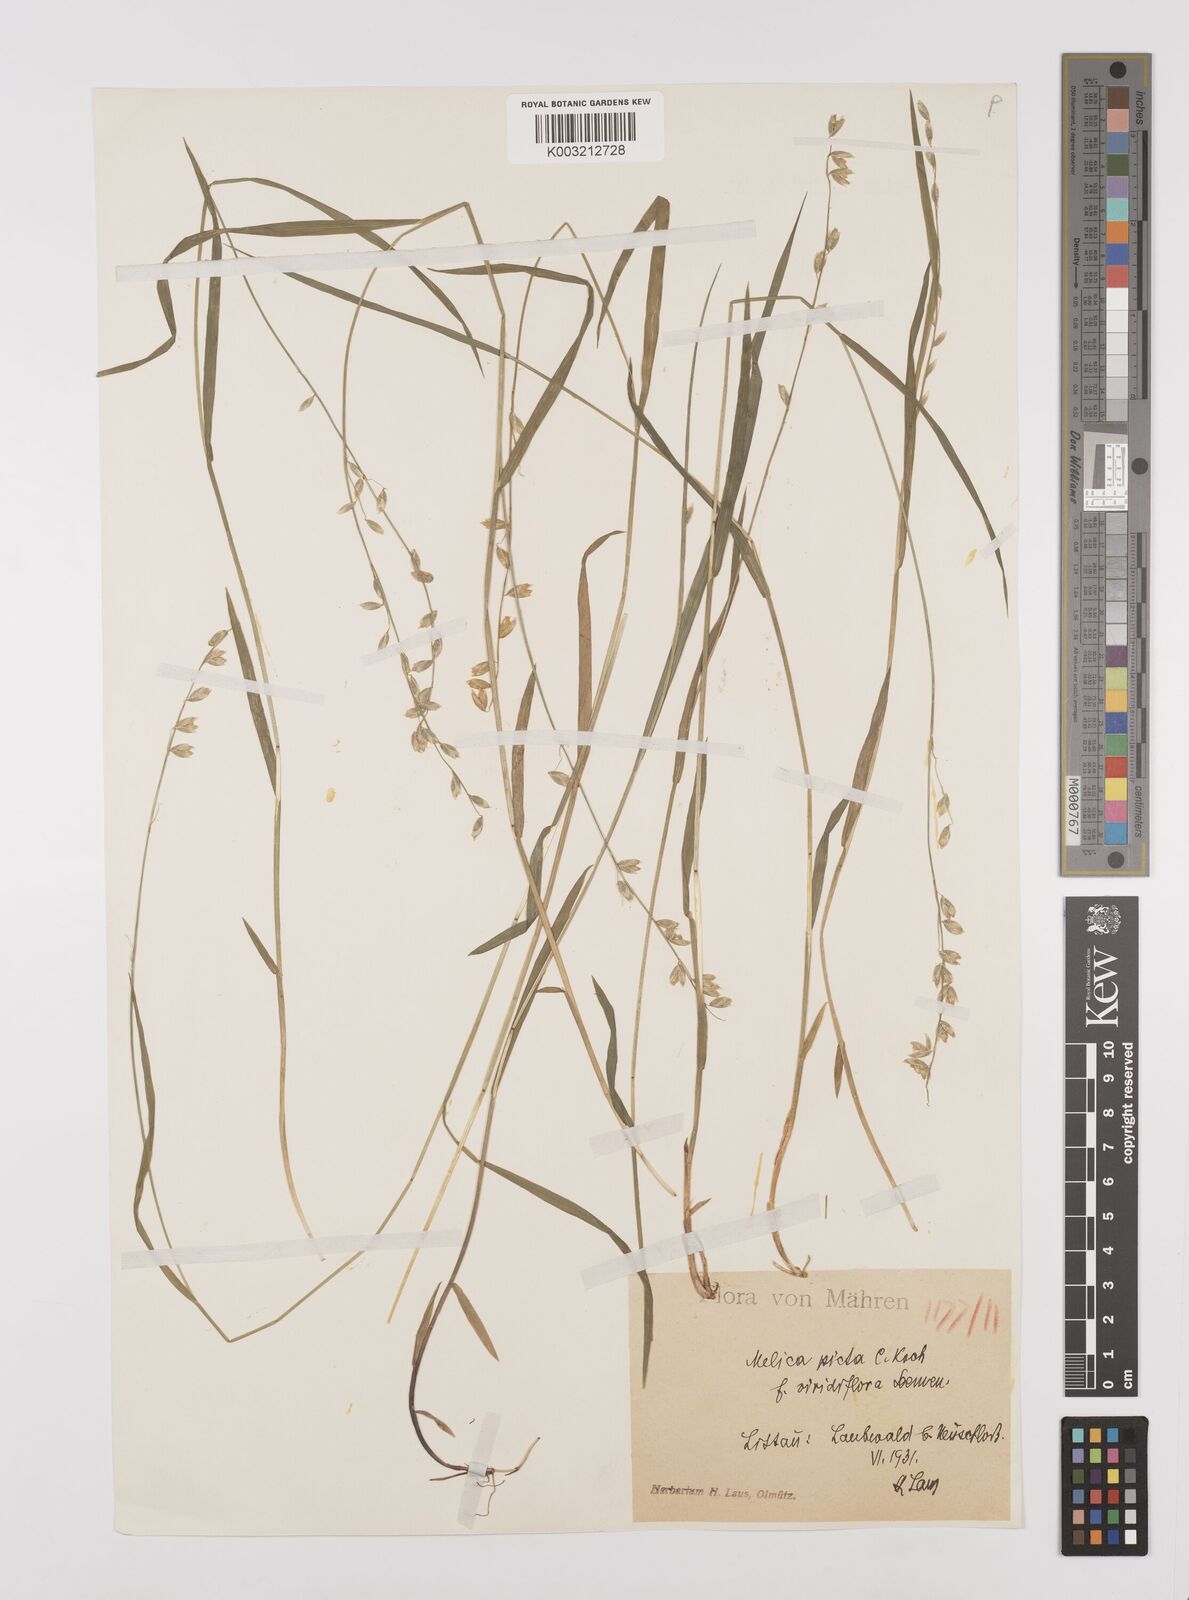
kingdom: Plantae
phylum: Tracheophyta
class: Liliopsida
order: Poales
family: Poaceae
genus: Melica
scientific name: Melica picta
